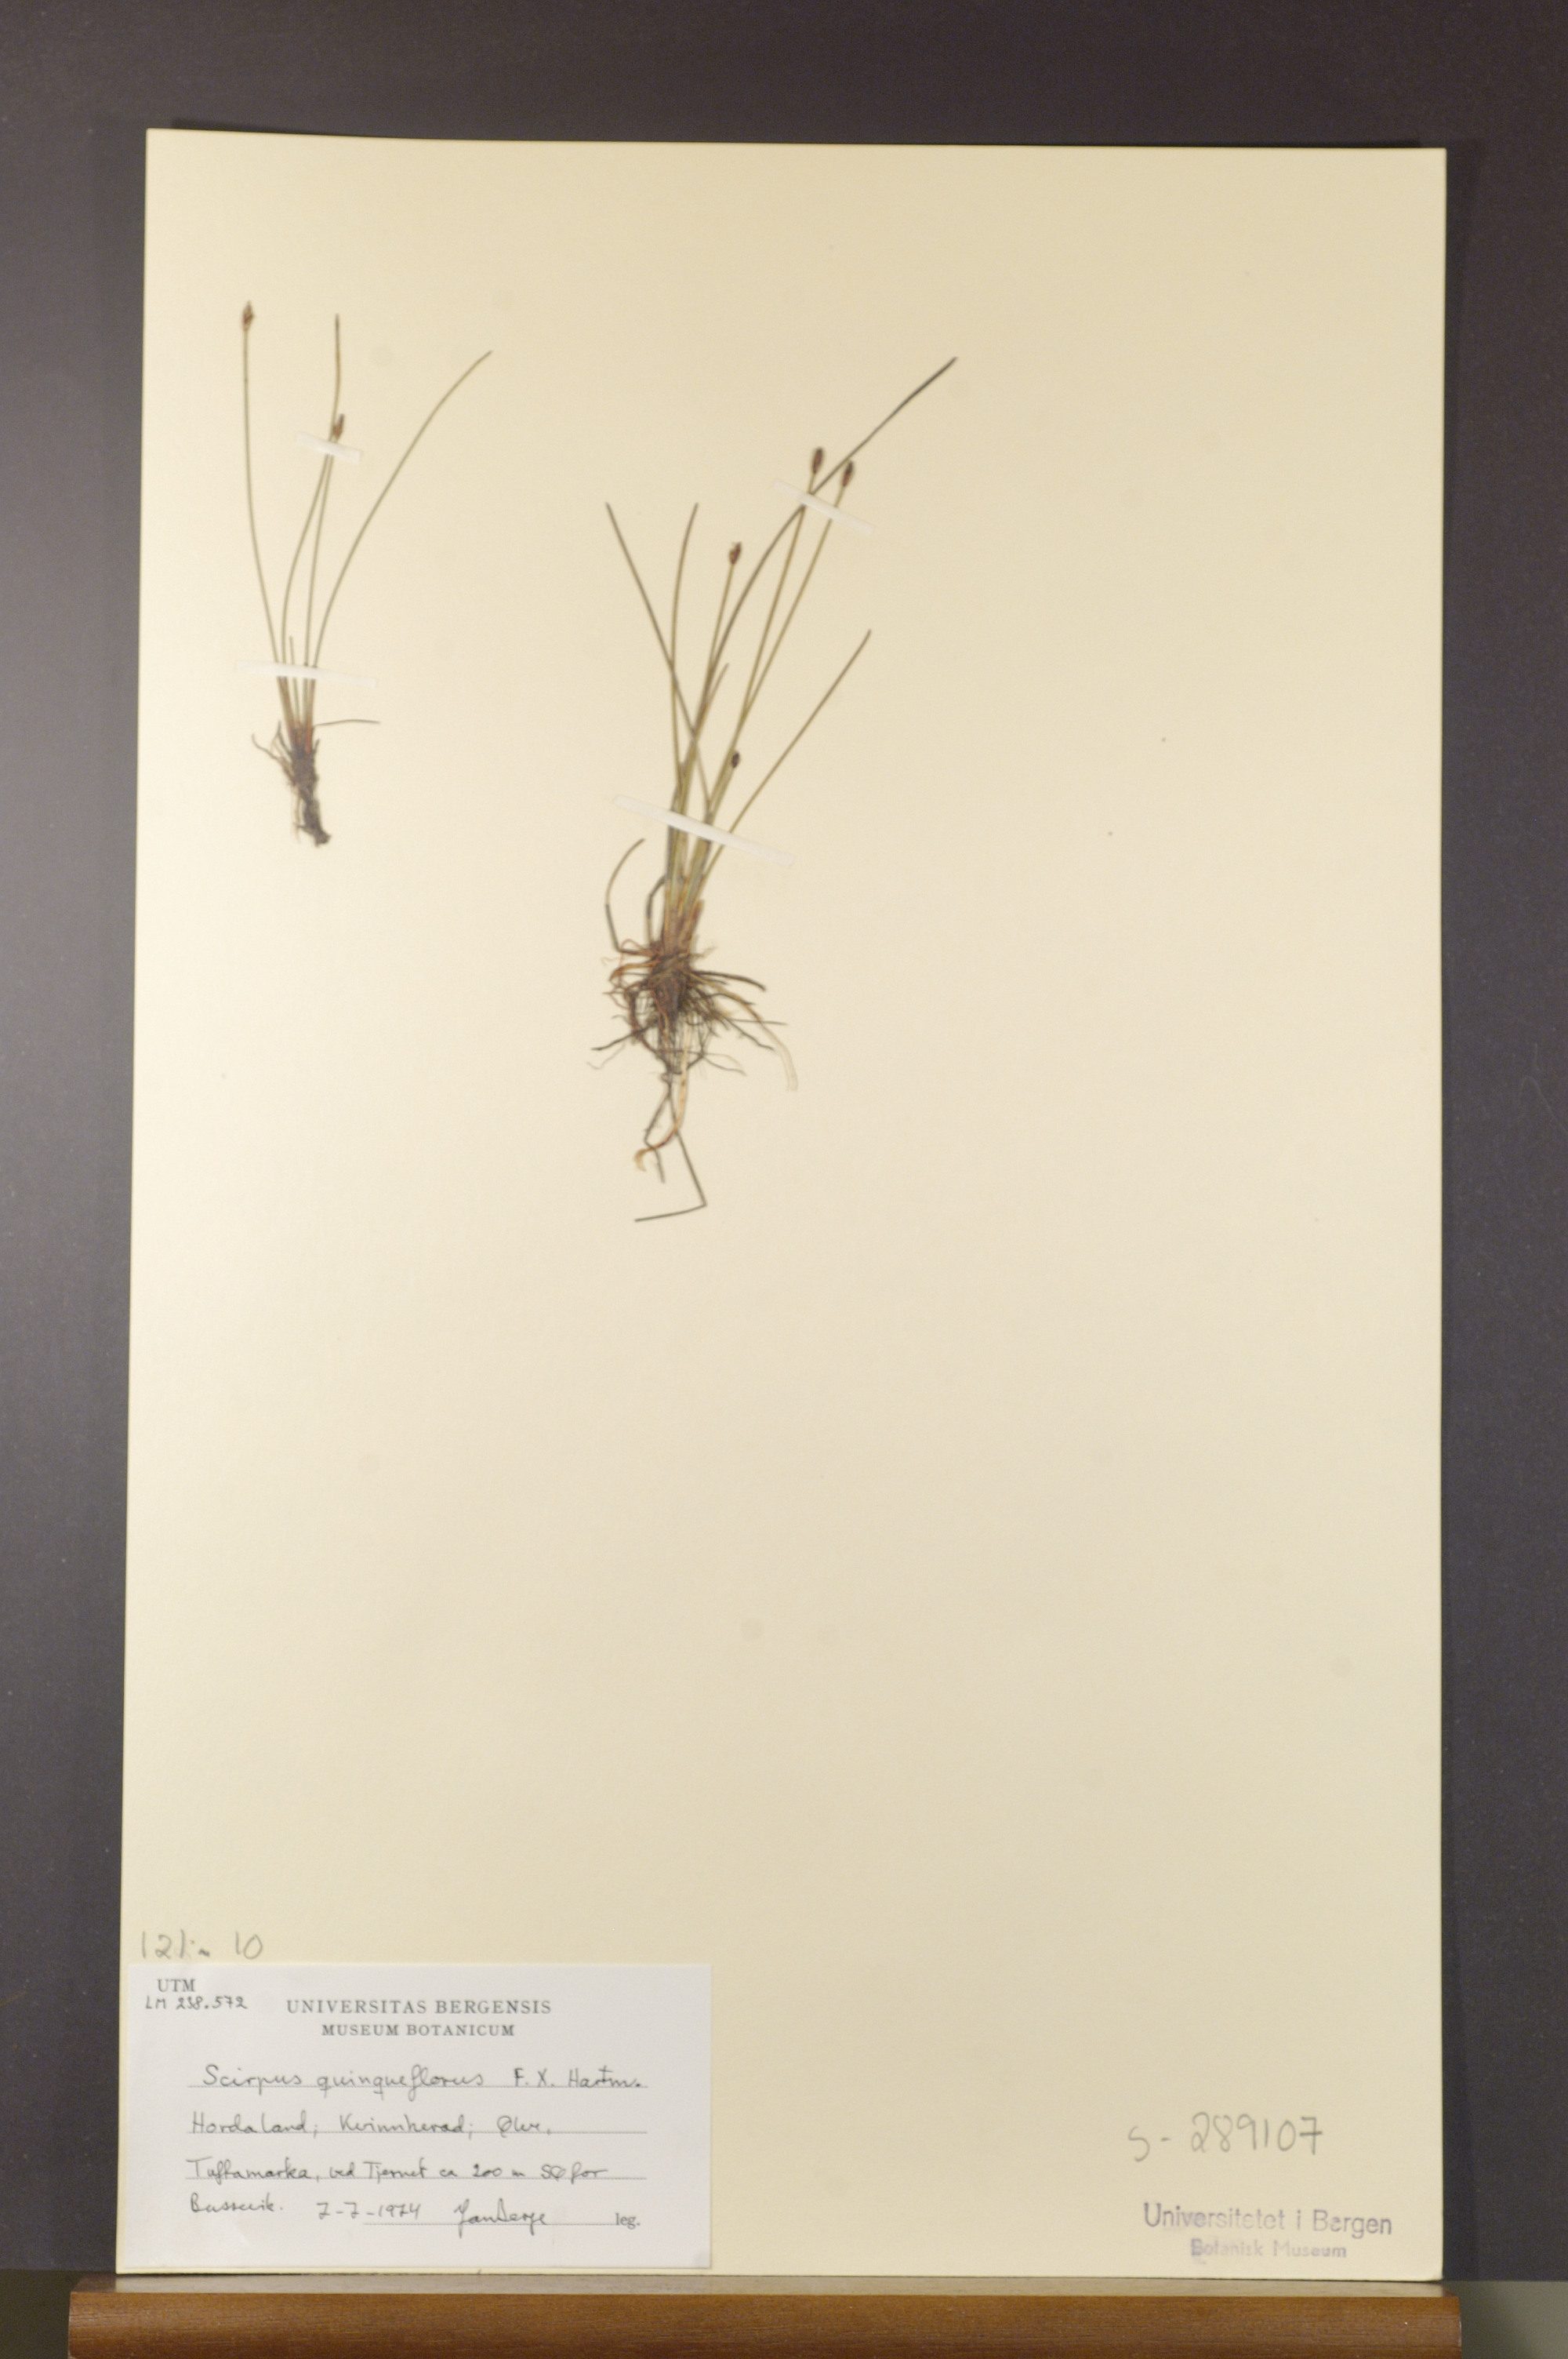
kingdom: Plantae
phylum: Tracheophyta
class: Liliopsida
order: Poales
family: Cyperaceae
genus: Eleocharis
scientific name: Eleocharis quinqueflora
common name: Few-flowered spike-rush
